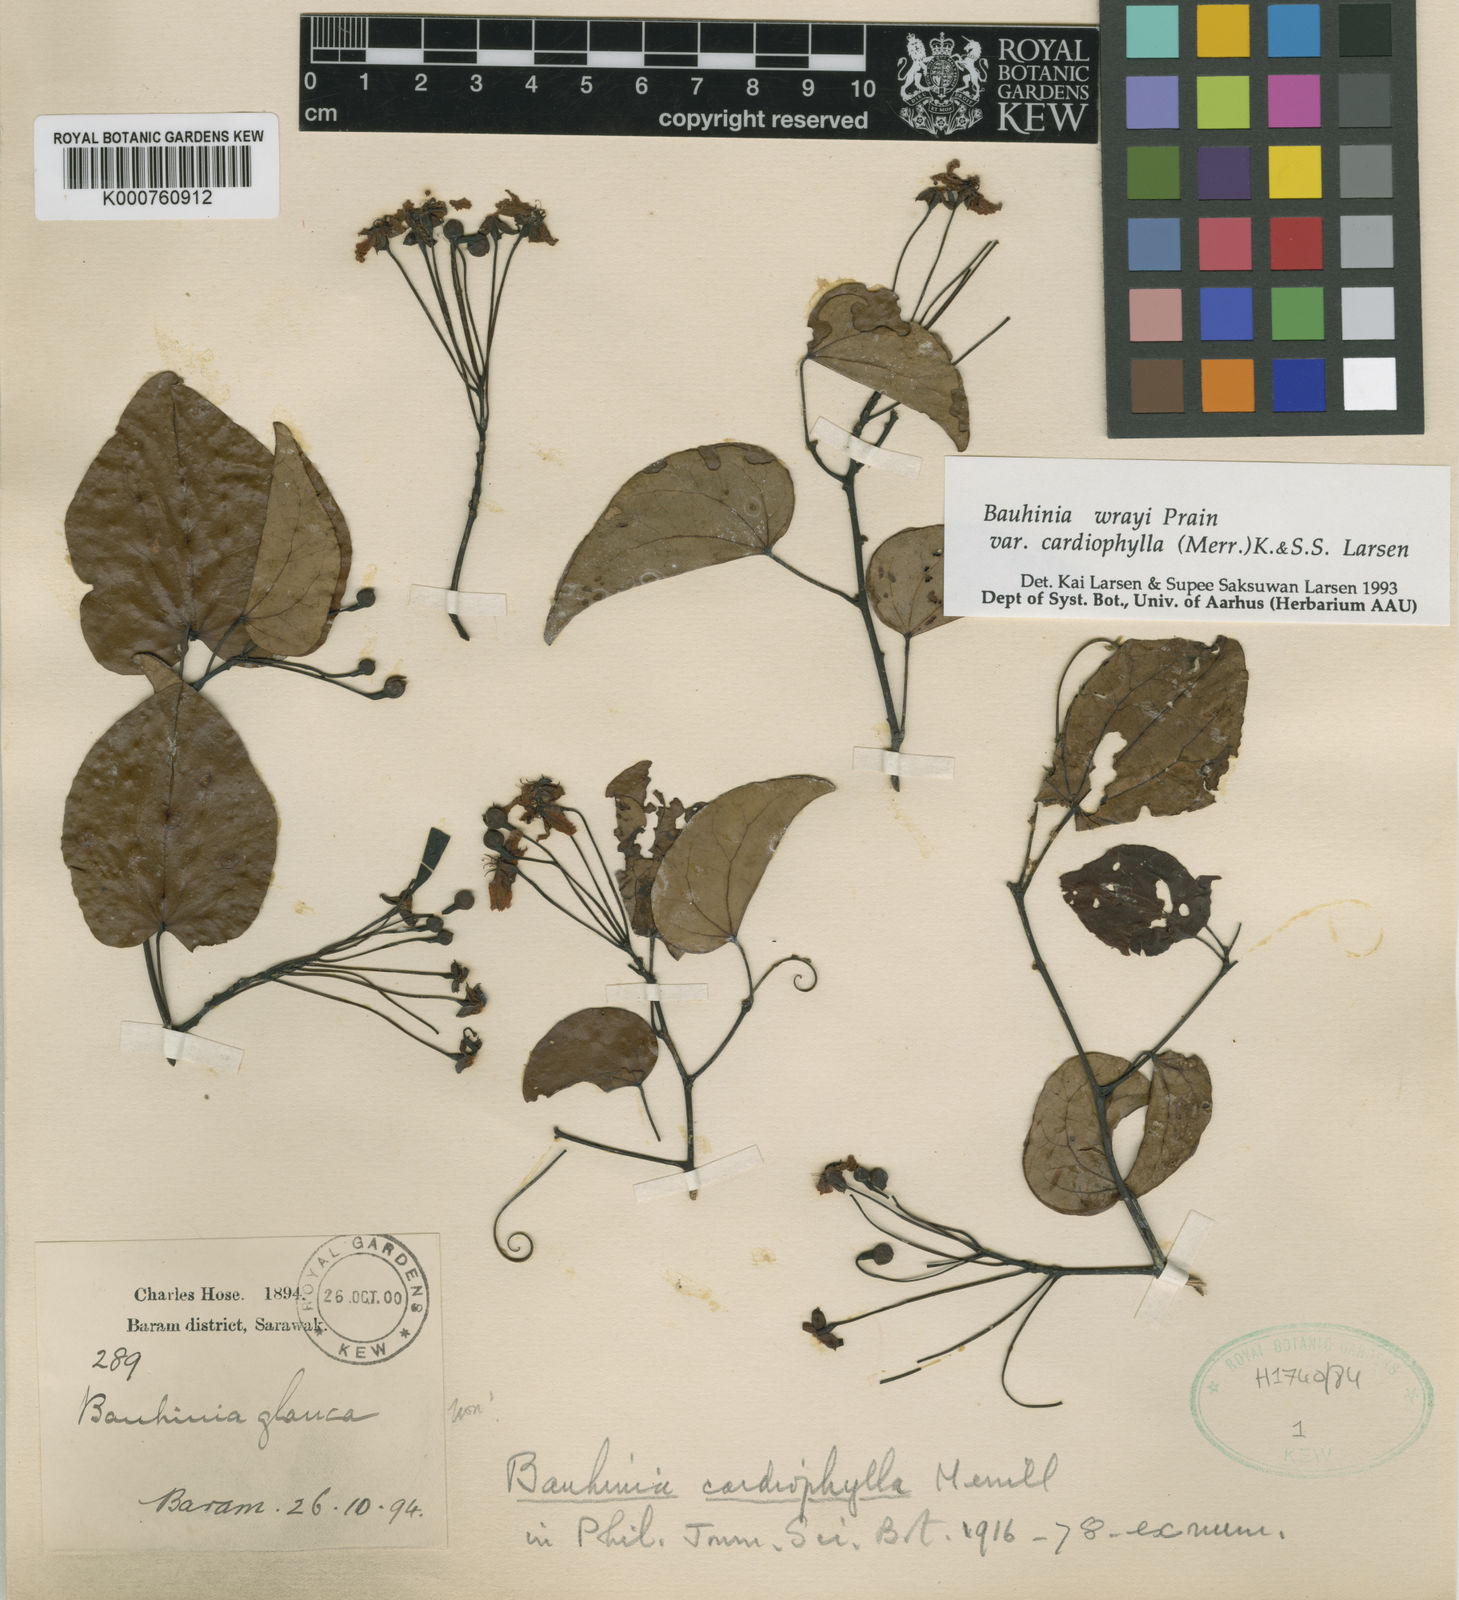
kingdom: Plantae
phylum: Tracheophyta
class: Magnoliopsida
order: Fabales
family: Fabaceae
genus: Phanera
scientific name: Phanera wrayi
